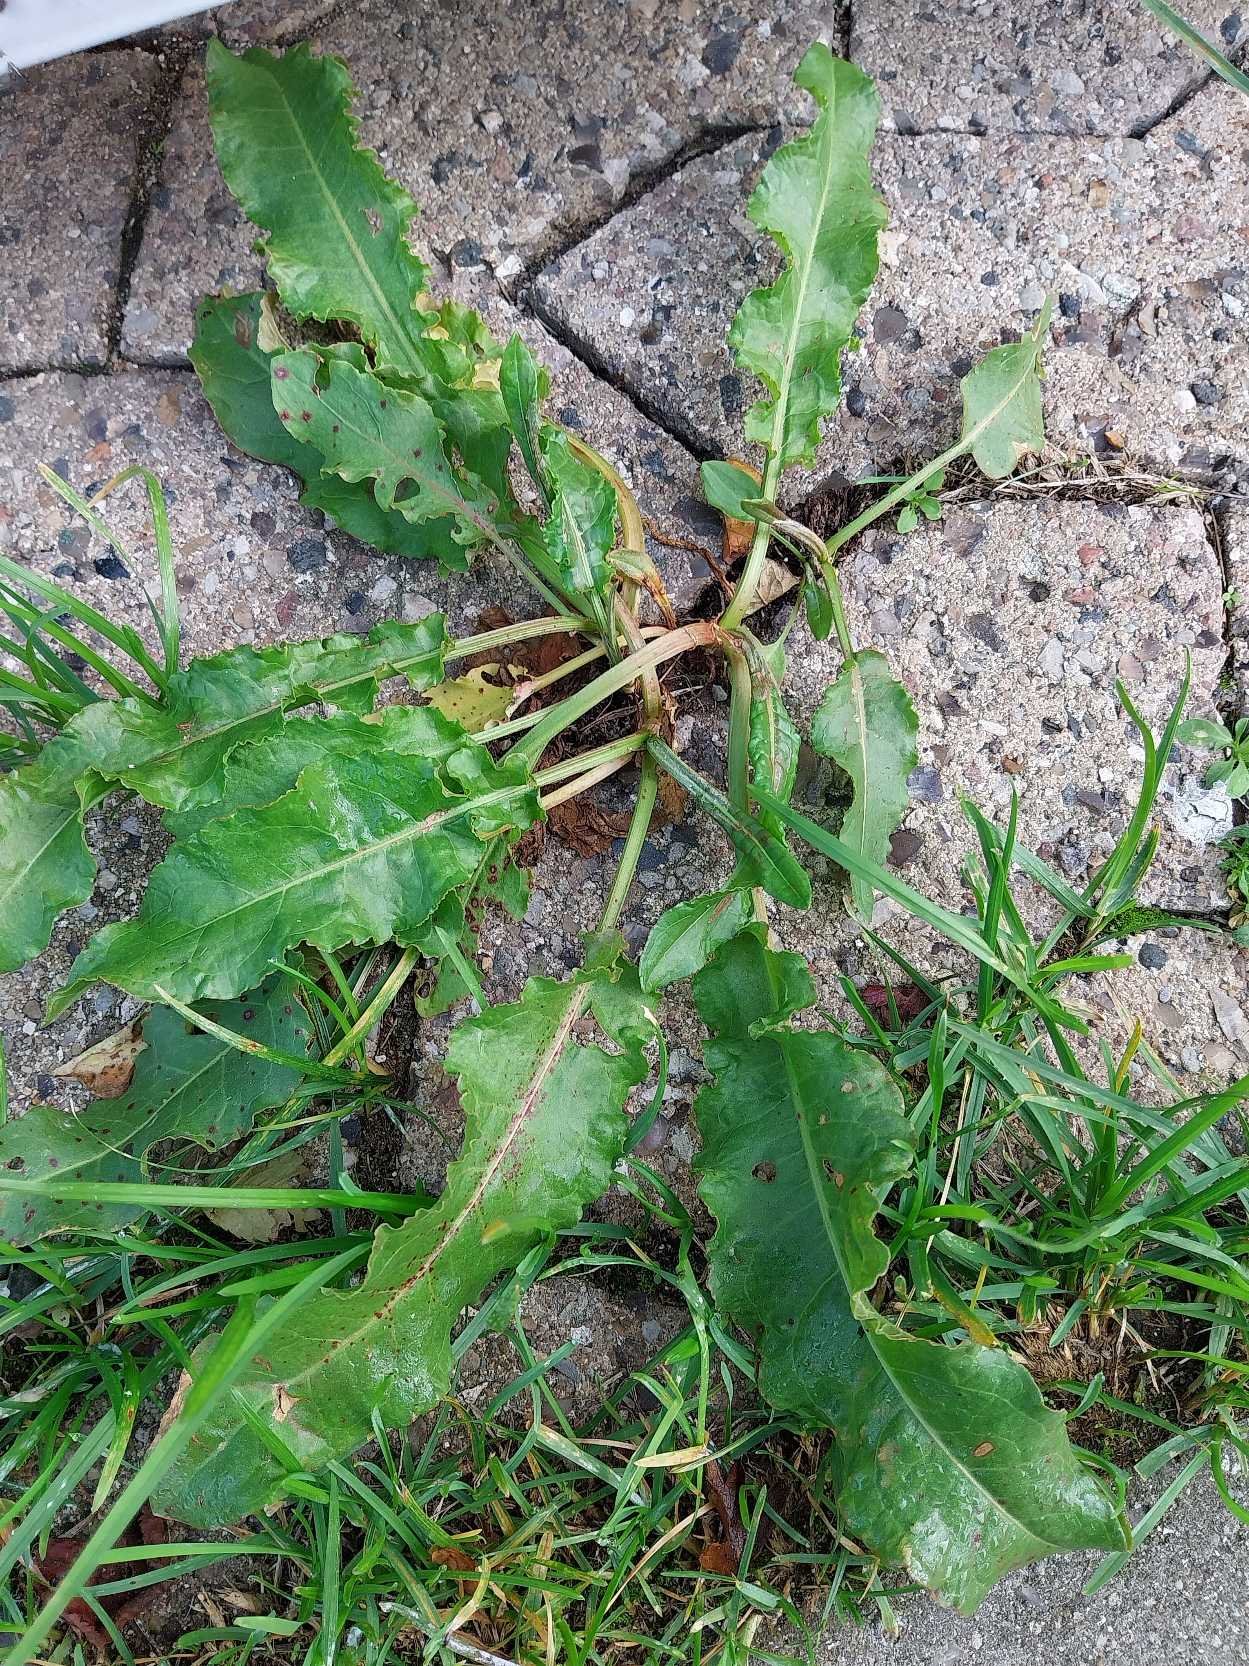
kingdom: Plantae
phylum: Tracheophyta
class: Magnoliopsida
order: Caryophyllales
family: Polygonaceae
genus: Rumex
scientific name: Rumex crispus
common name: Kruset skræppe
